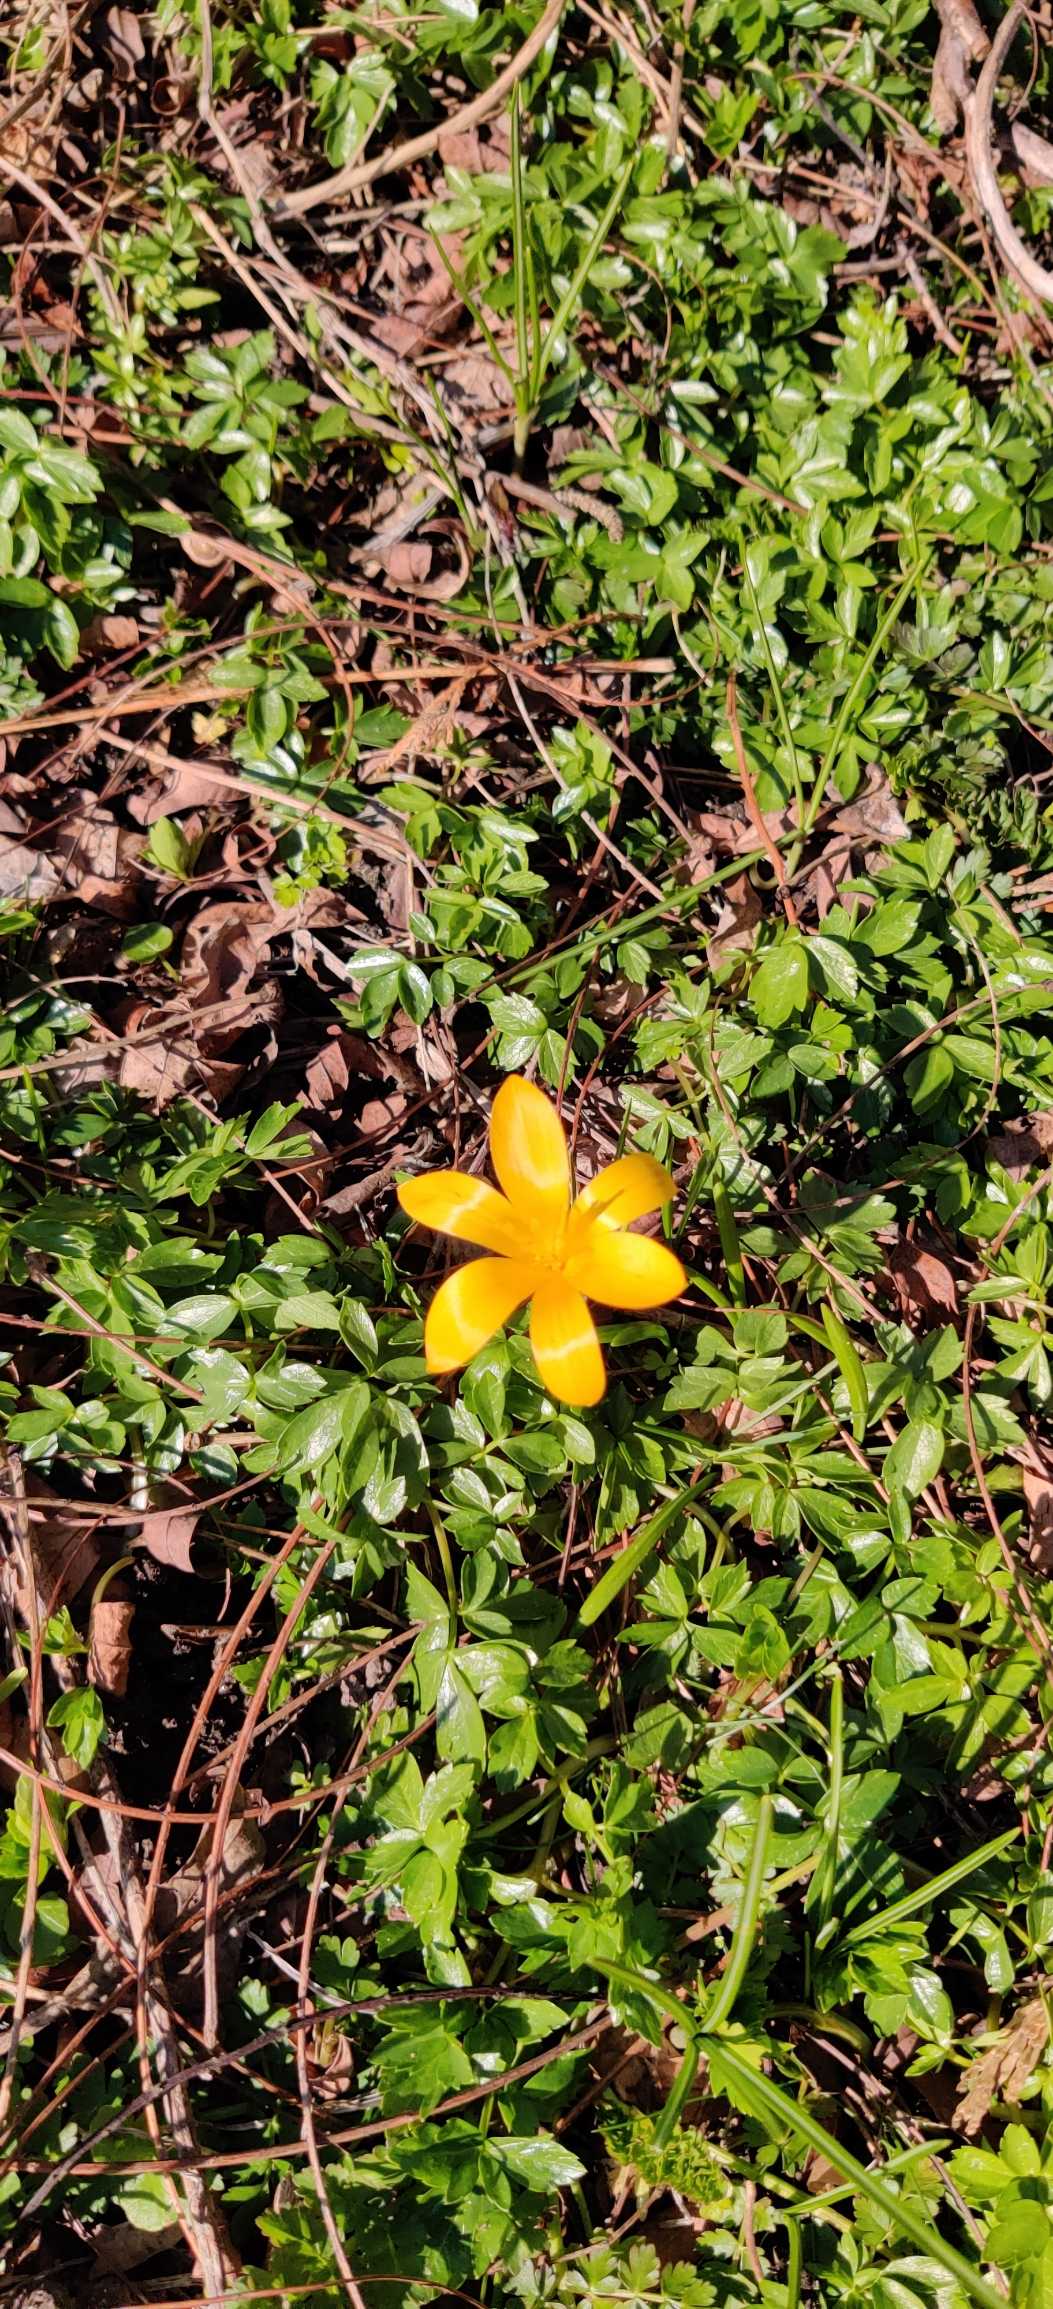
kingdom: Plantae
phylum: Tracheophyta
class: Liliopsida
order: Asparagales
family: Iridaceae
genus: Crocus
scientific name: Crocus luteus
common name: Gul krokus
